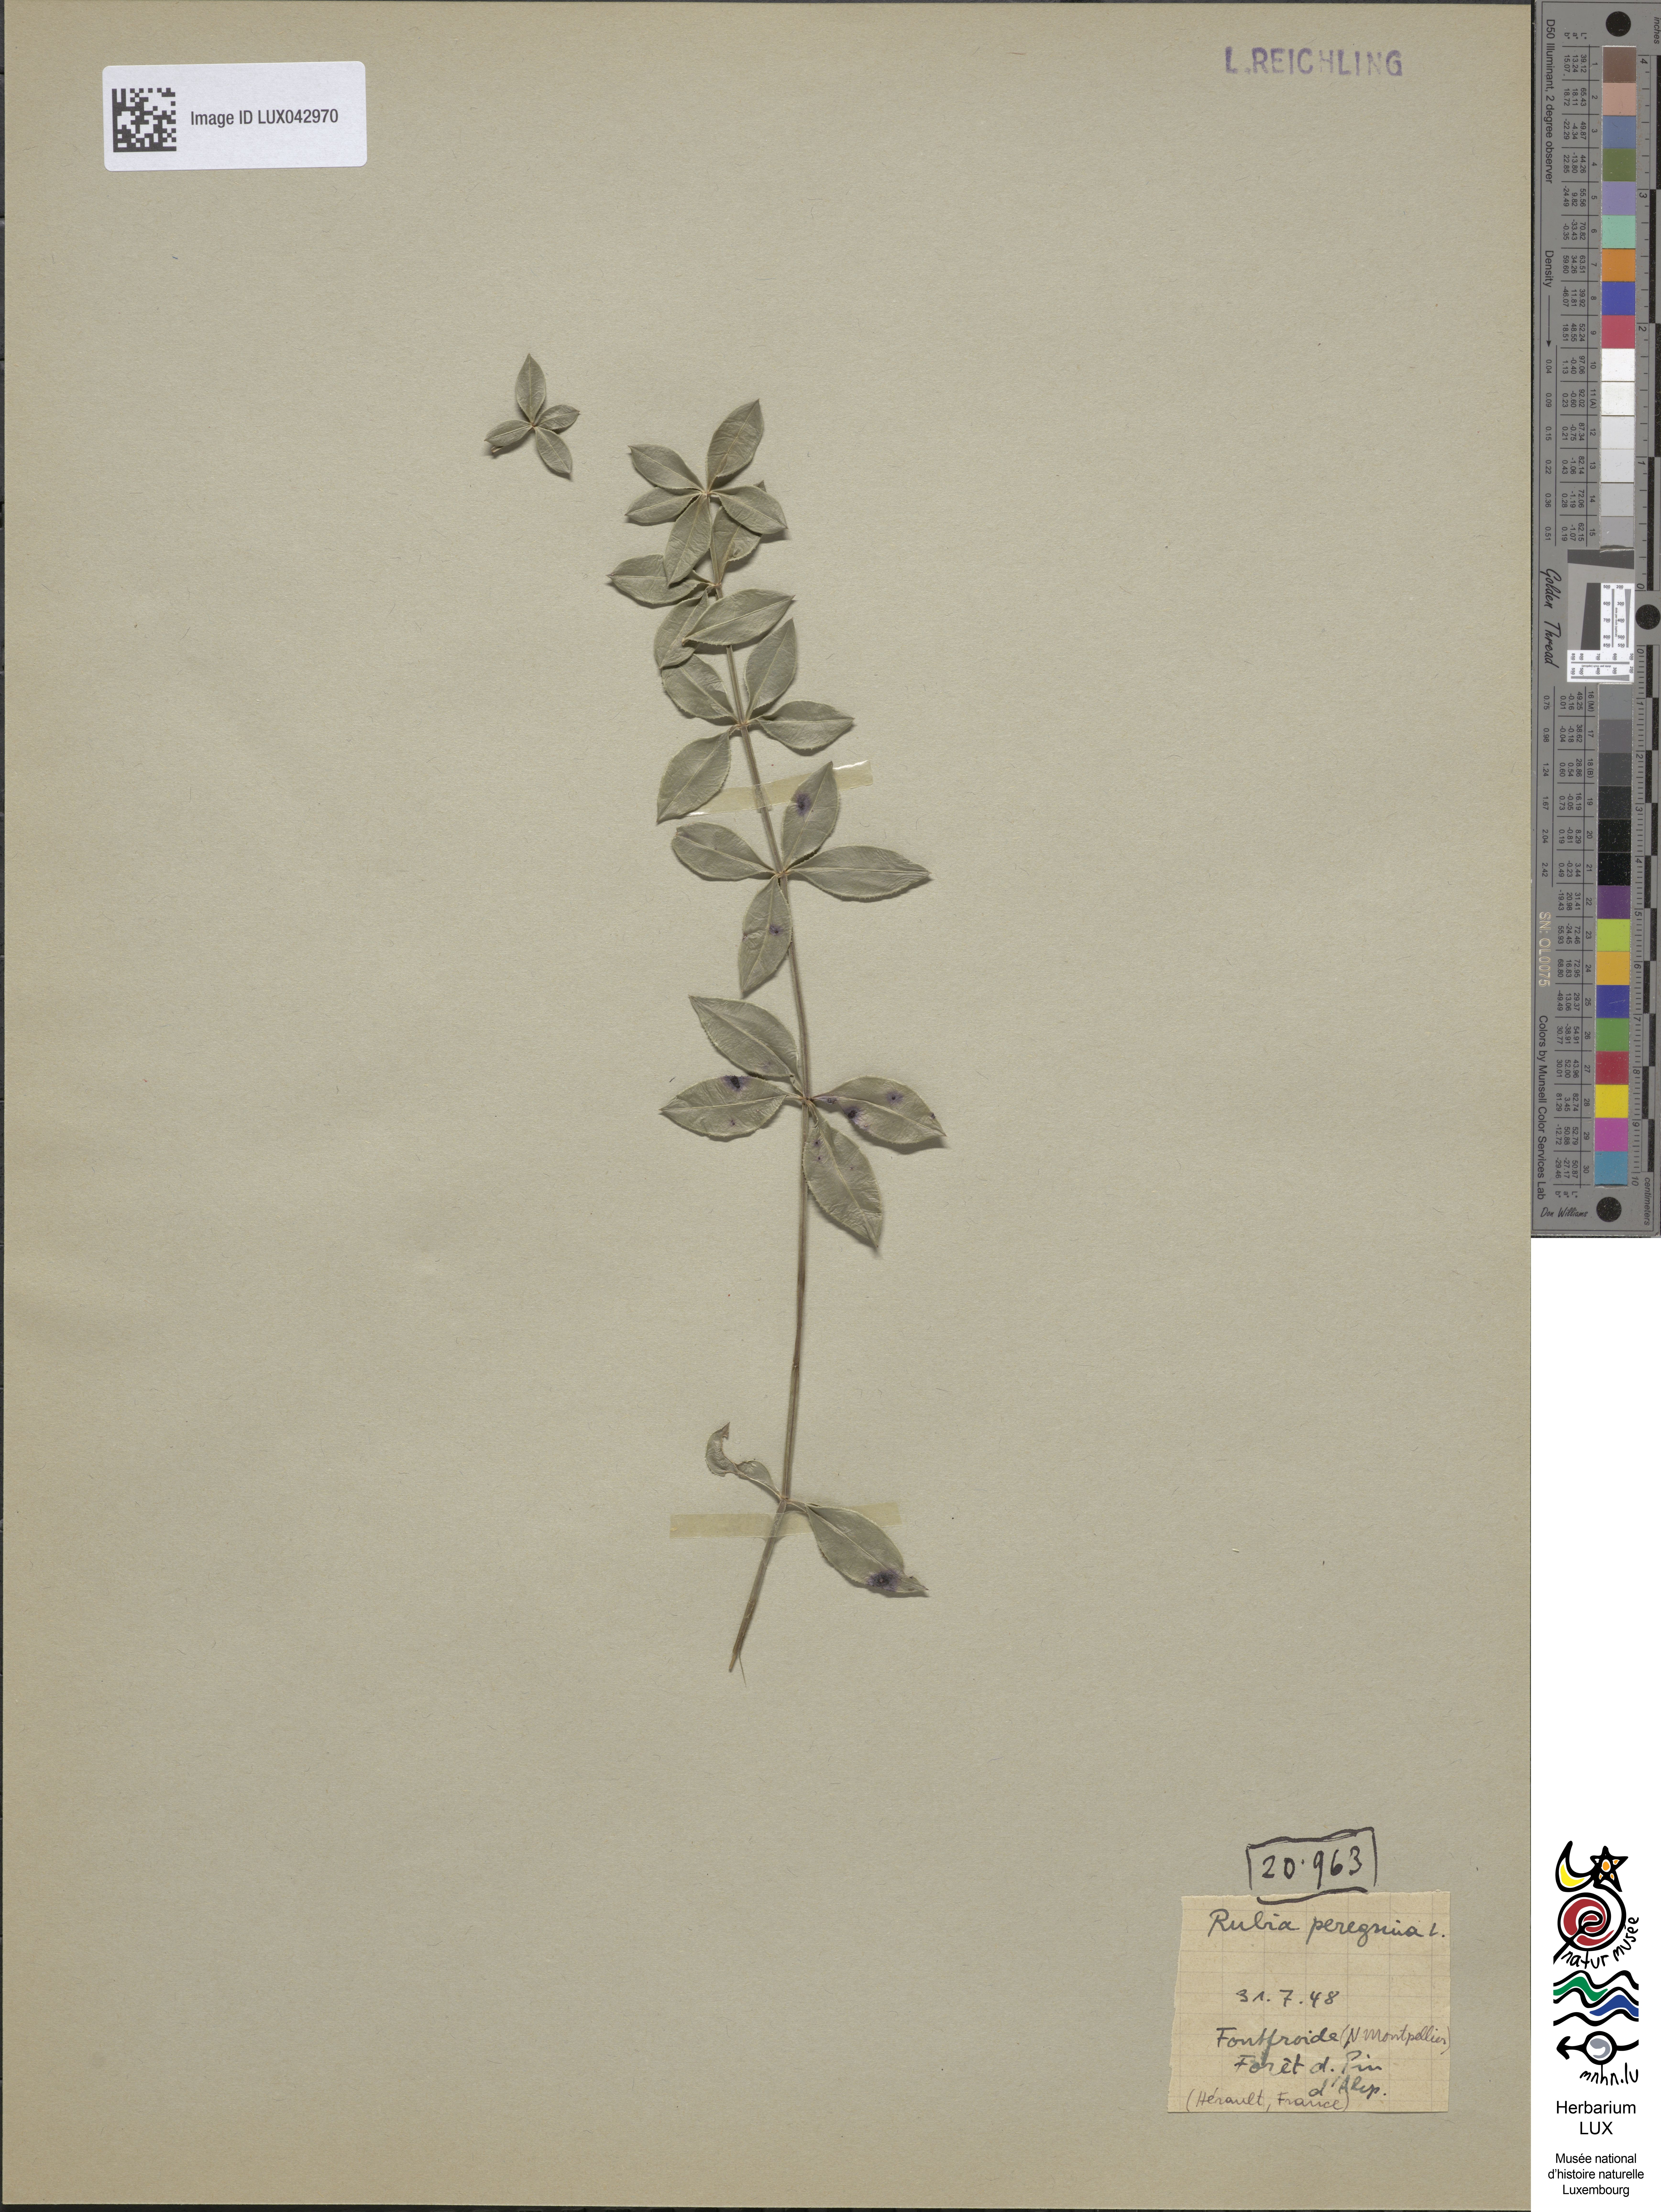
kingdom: Plantae
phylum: Tracheophyta
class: Magnoliopsida
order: Gentianales
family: Rubiaceae
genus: Rubia
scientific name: Rubia peregrina
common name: Wild madder
